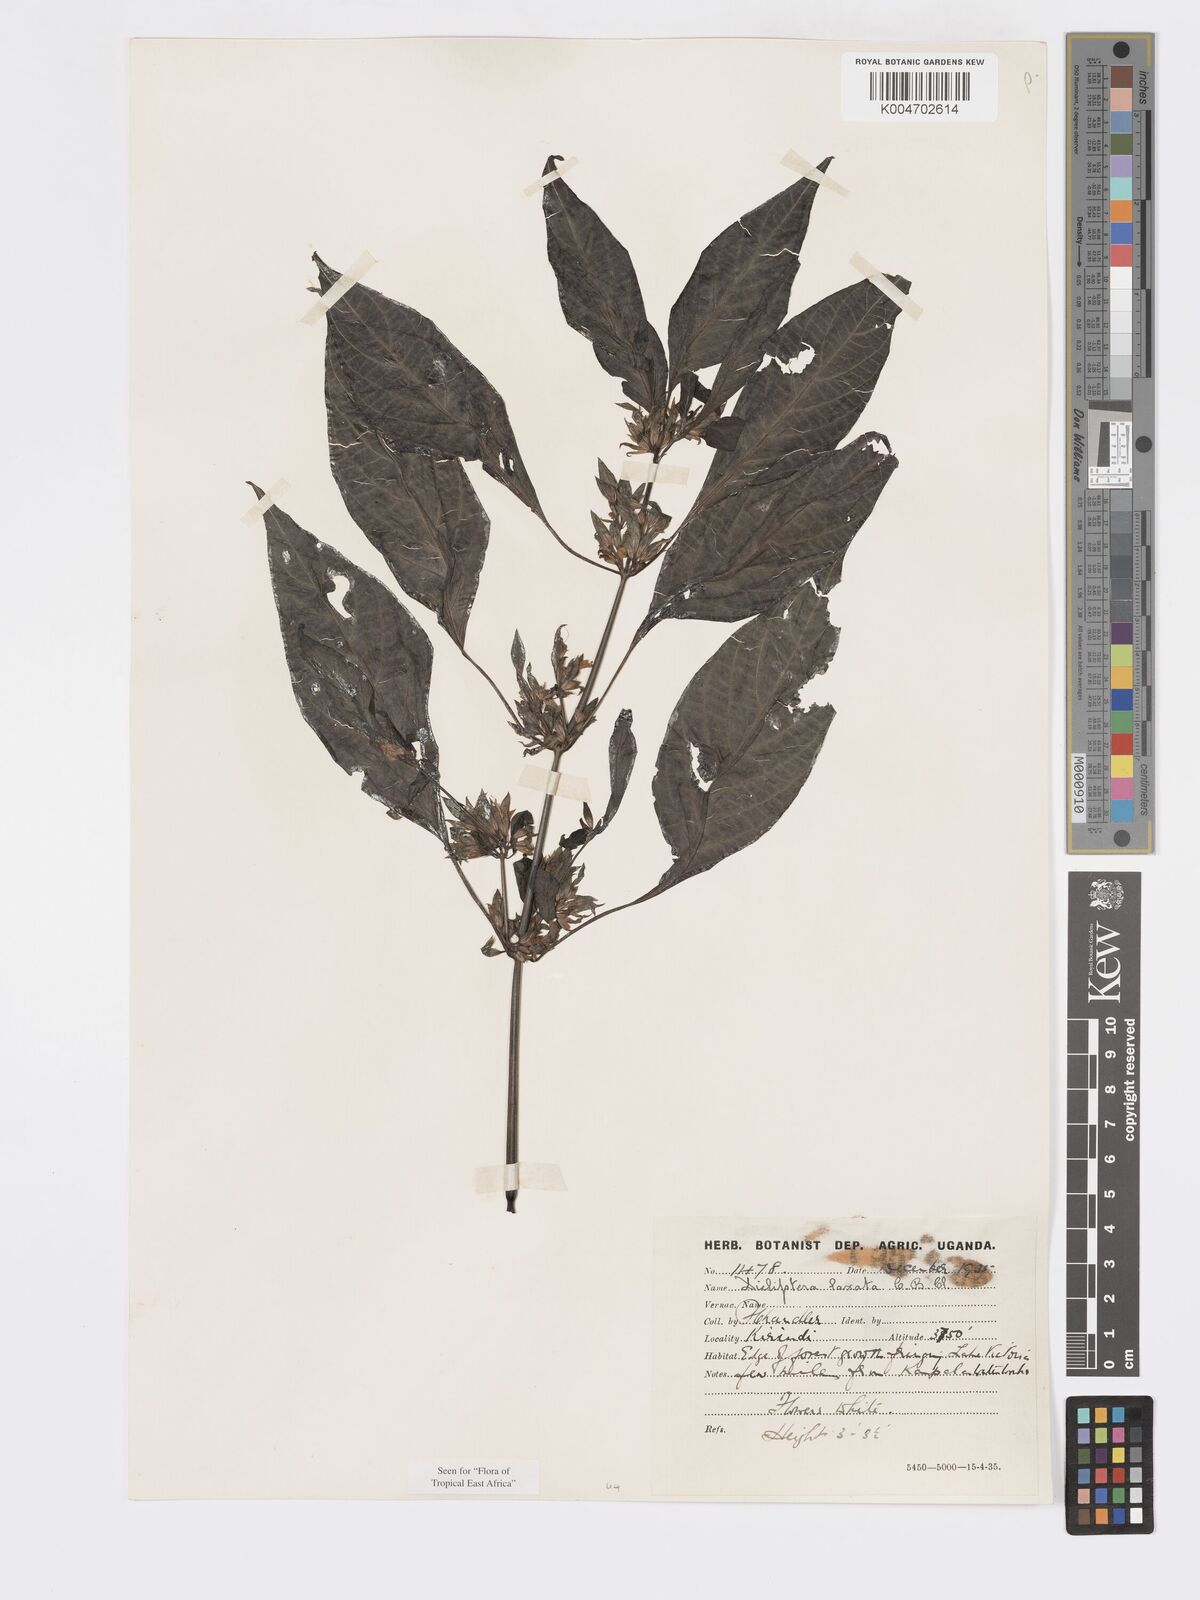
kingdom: Plantae
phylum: Tracheophyta
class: Magnoliopsida
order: Lamiales
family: Acanthaceae
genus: Dicliptera
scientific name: Dicliptera laxata
